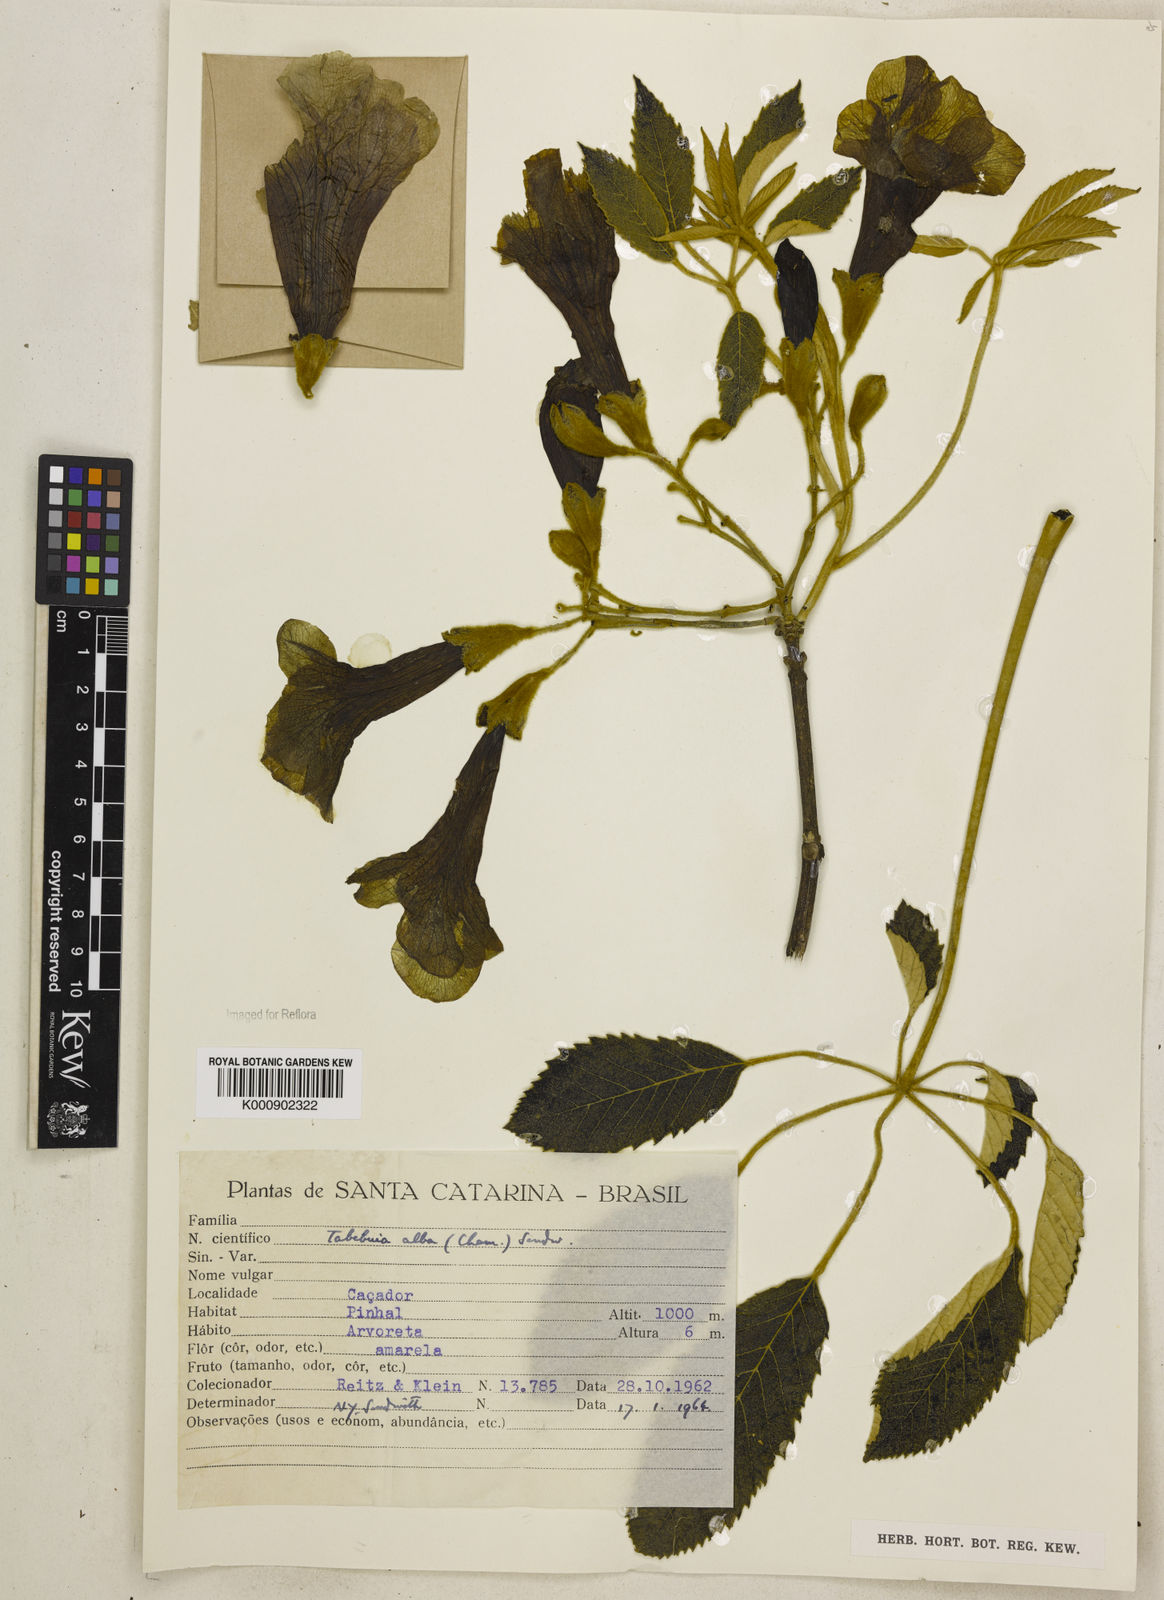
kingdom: Plantae
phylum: Tracheophyta
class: Magnoliopsida
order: Lamiales
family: Bignoniaceae
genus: Handroanthus
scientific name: Handroanthus albus
